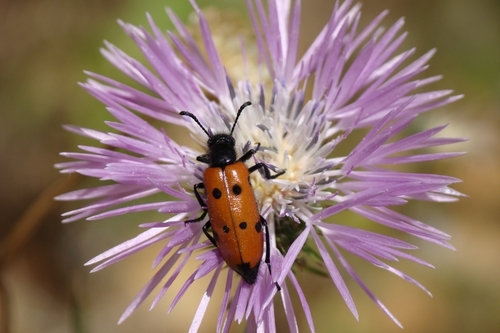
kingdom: Animalia
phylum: Arthropoda
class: Insecta
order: Coleoptera
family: Meloidae
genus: Mylabris
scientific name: Mylabris quadripunctata
